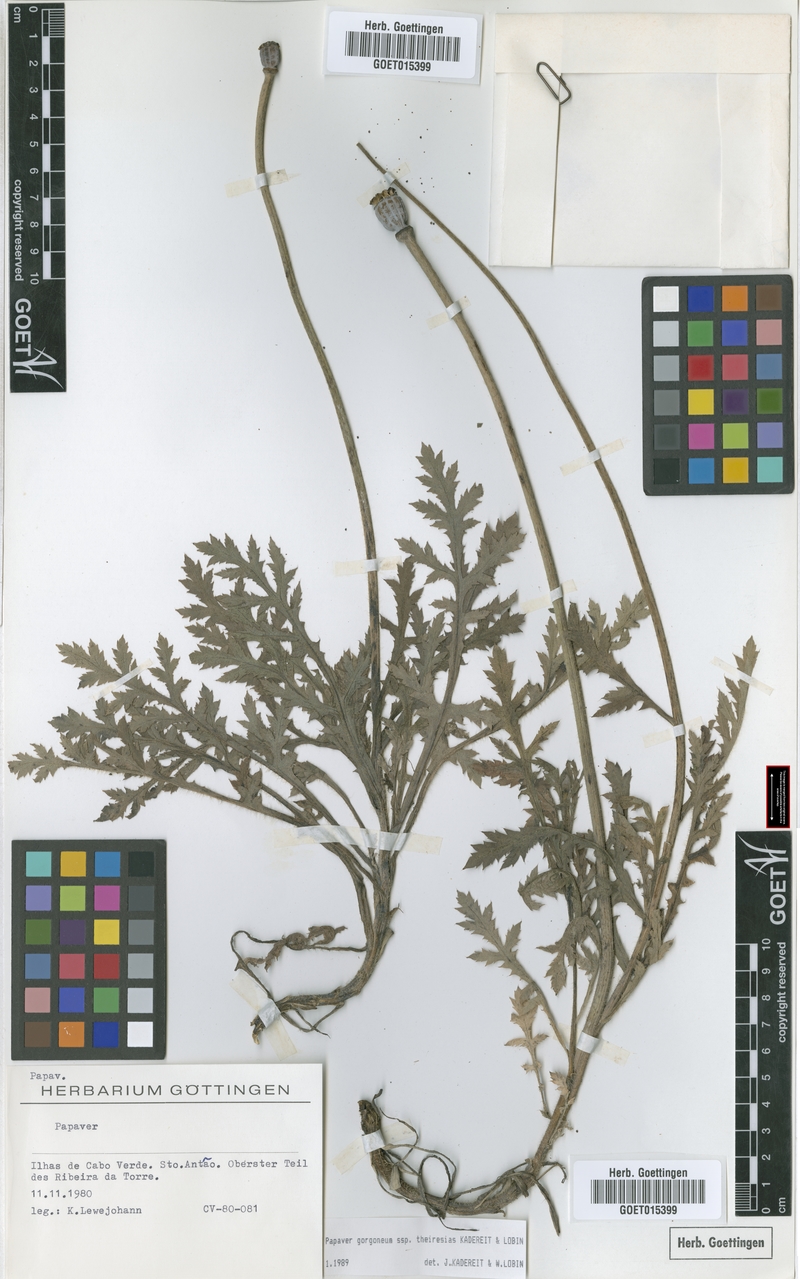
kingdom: Plantae
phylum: Tracheophyta
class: Magnoliopsida
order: Ranunculales
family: Papaveraceae
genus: Papaver
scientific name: Papaver gorgoneum
